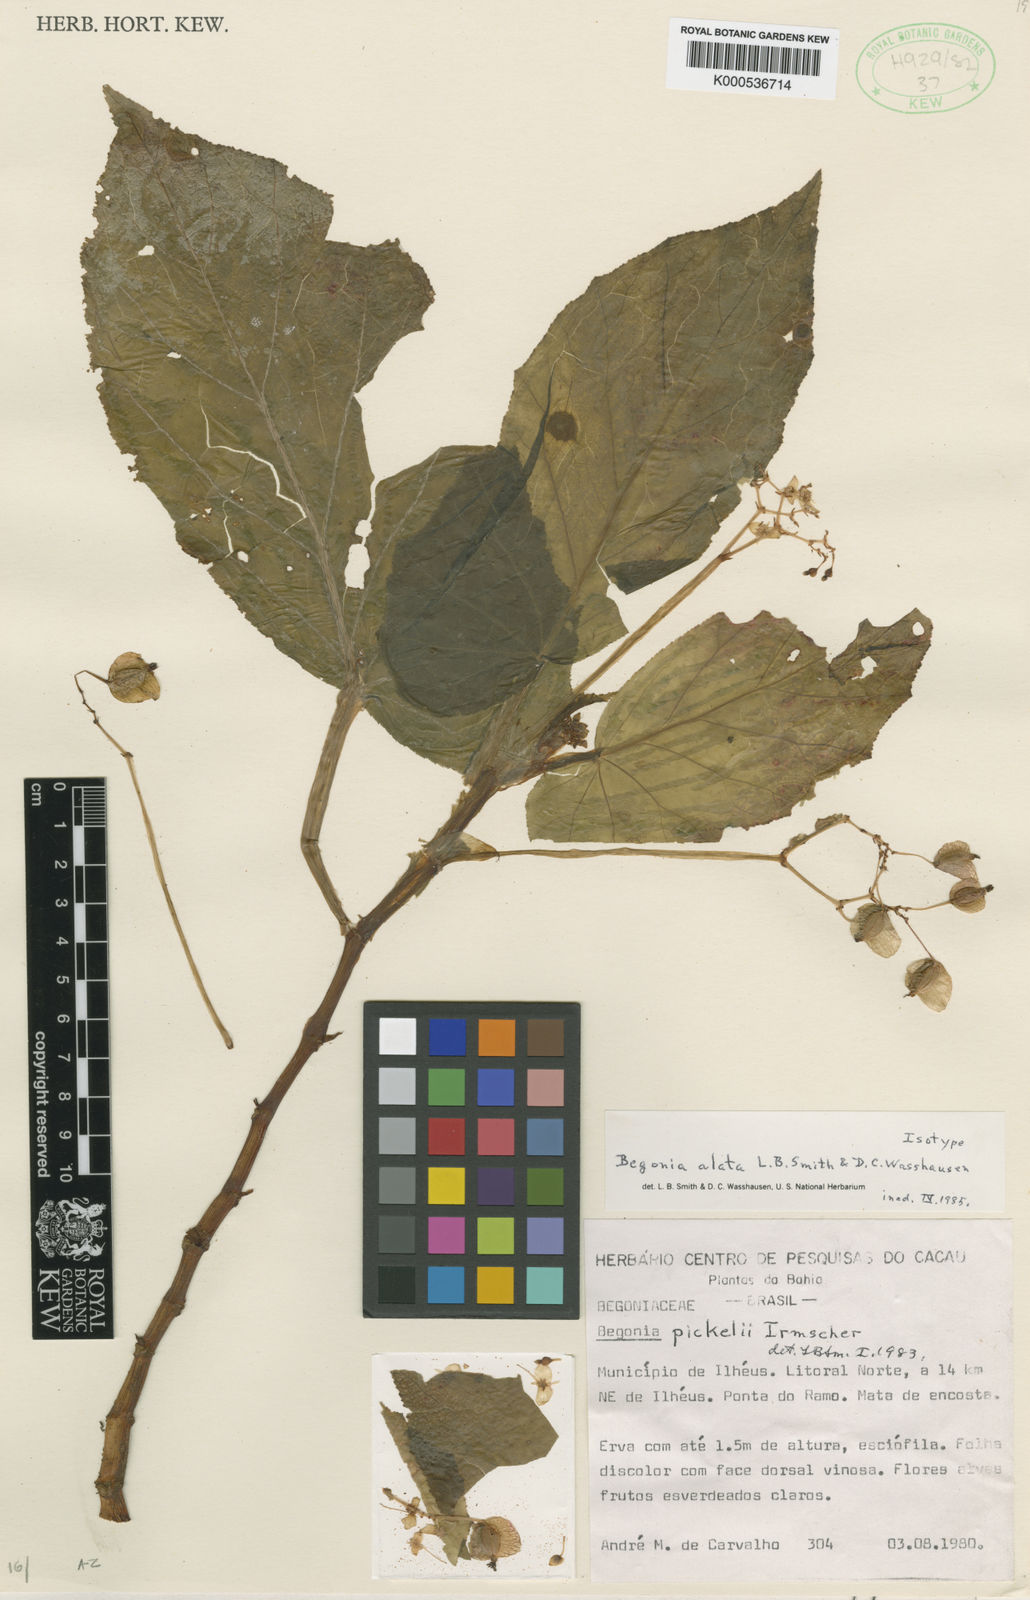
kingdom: Plantae
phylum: Tracheophyta
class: Magnoliopsida
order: Cucurbitales
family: Begoniaceae
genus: Begonia
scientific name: Begonia pickelii
